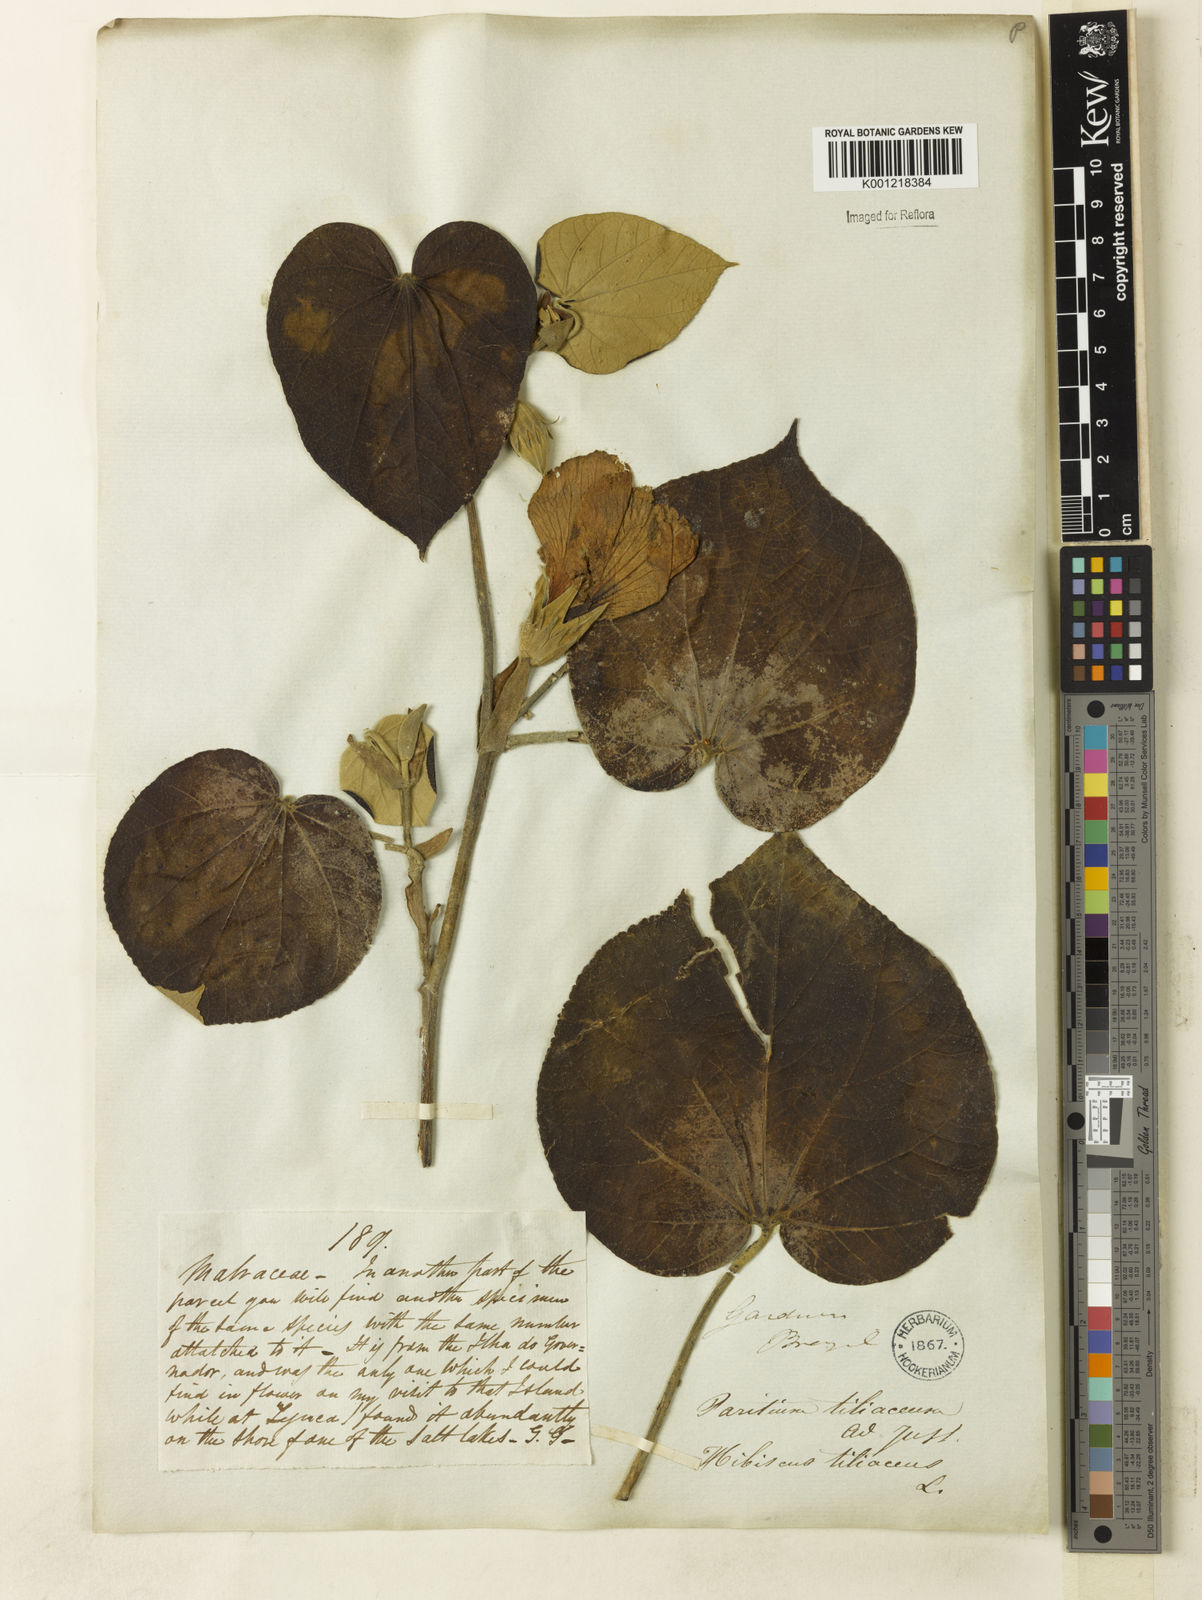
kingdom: Plantae
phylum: Tracheophyta
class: Magnoliopsida
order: Malvales
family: Malvaceae
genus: Hibiscus
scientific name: Hibiscus
